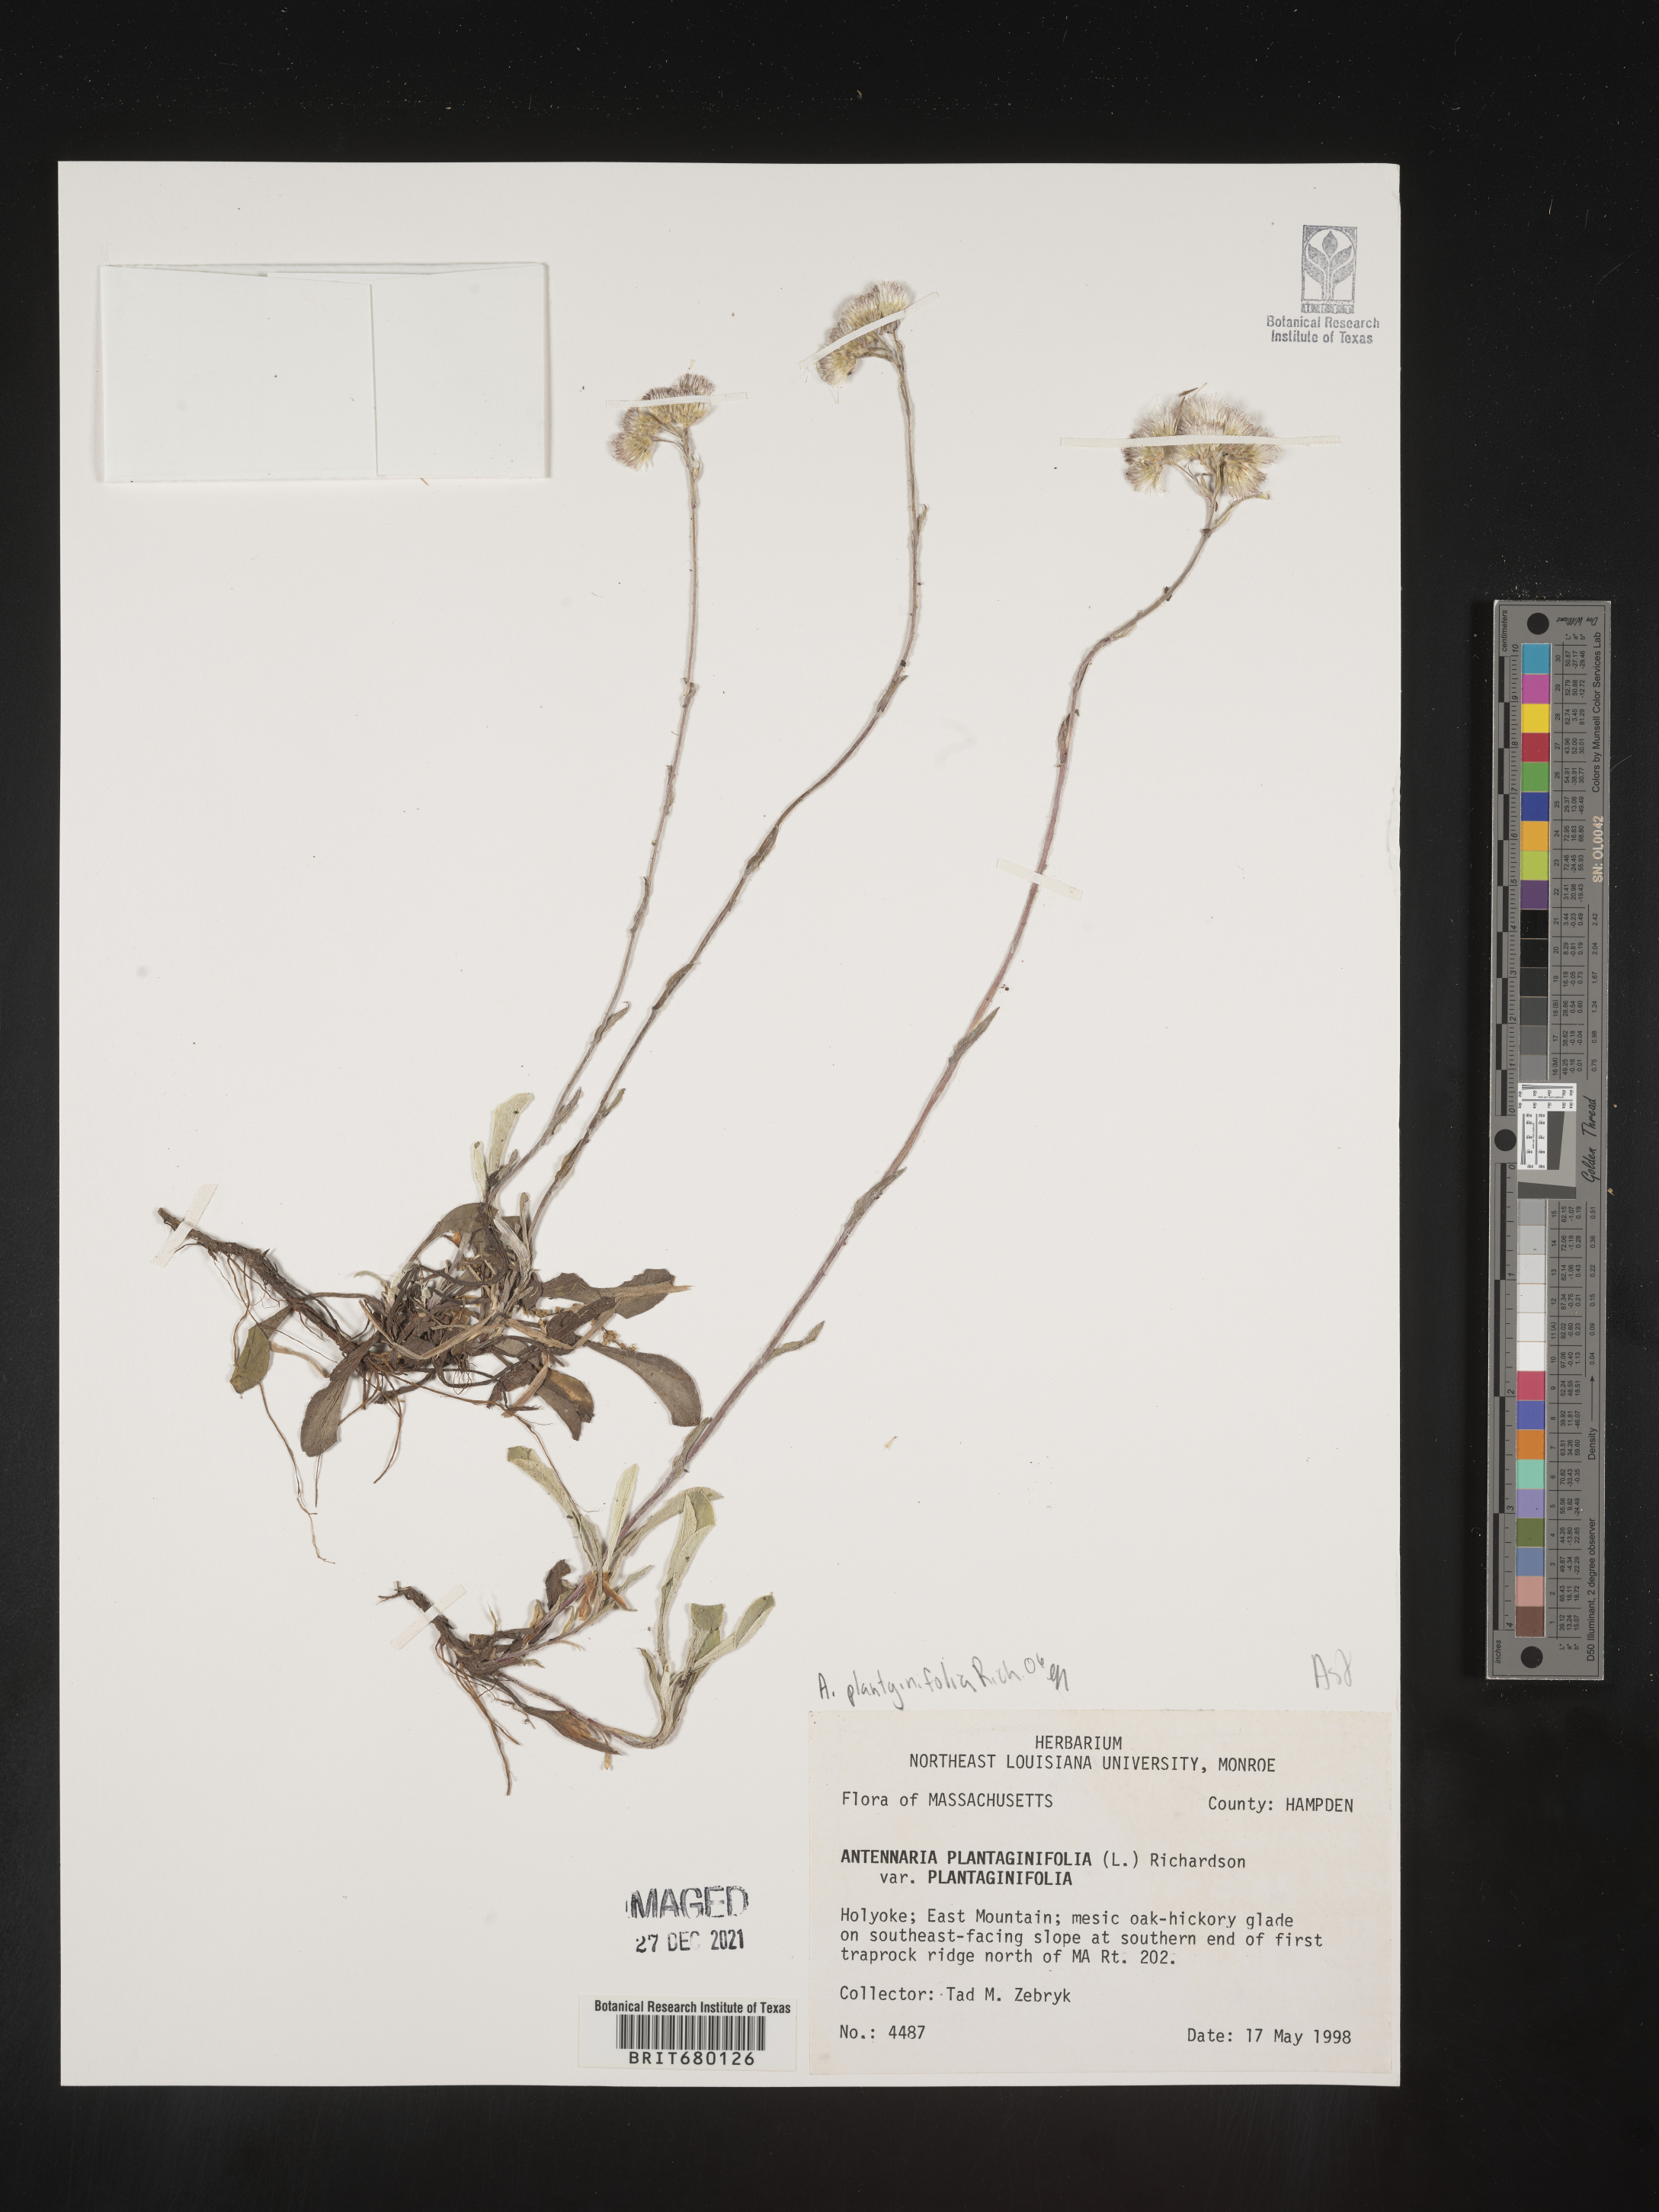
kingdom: Plantae
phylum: Tracheophyta
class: Magnoliopsida
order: Asterales
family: Asteraceae
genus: Antennaria
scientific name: Antennaria plantaginifolia
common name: Plantain-leaved pussytoes
